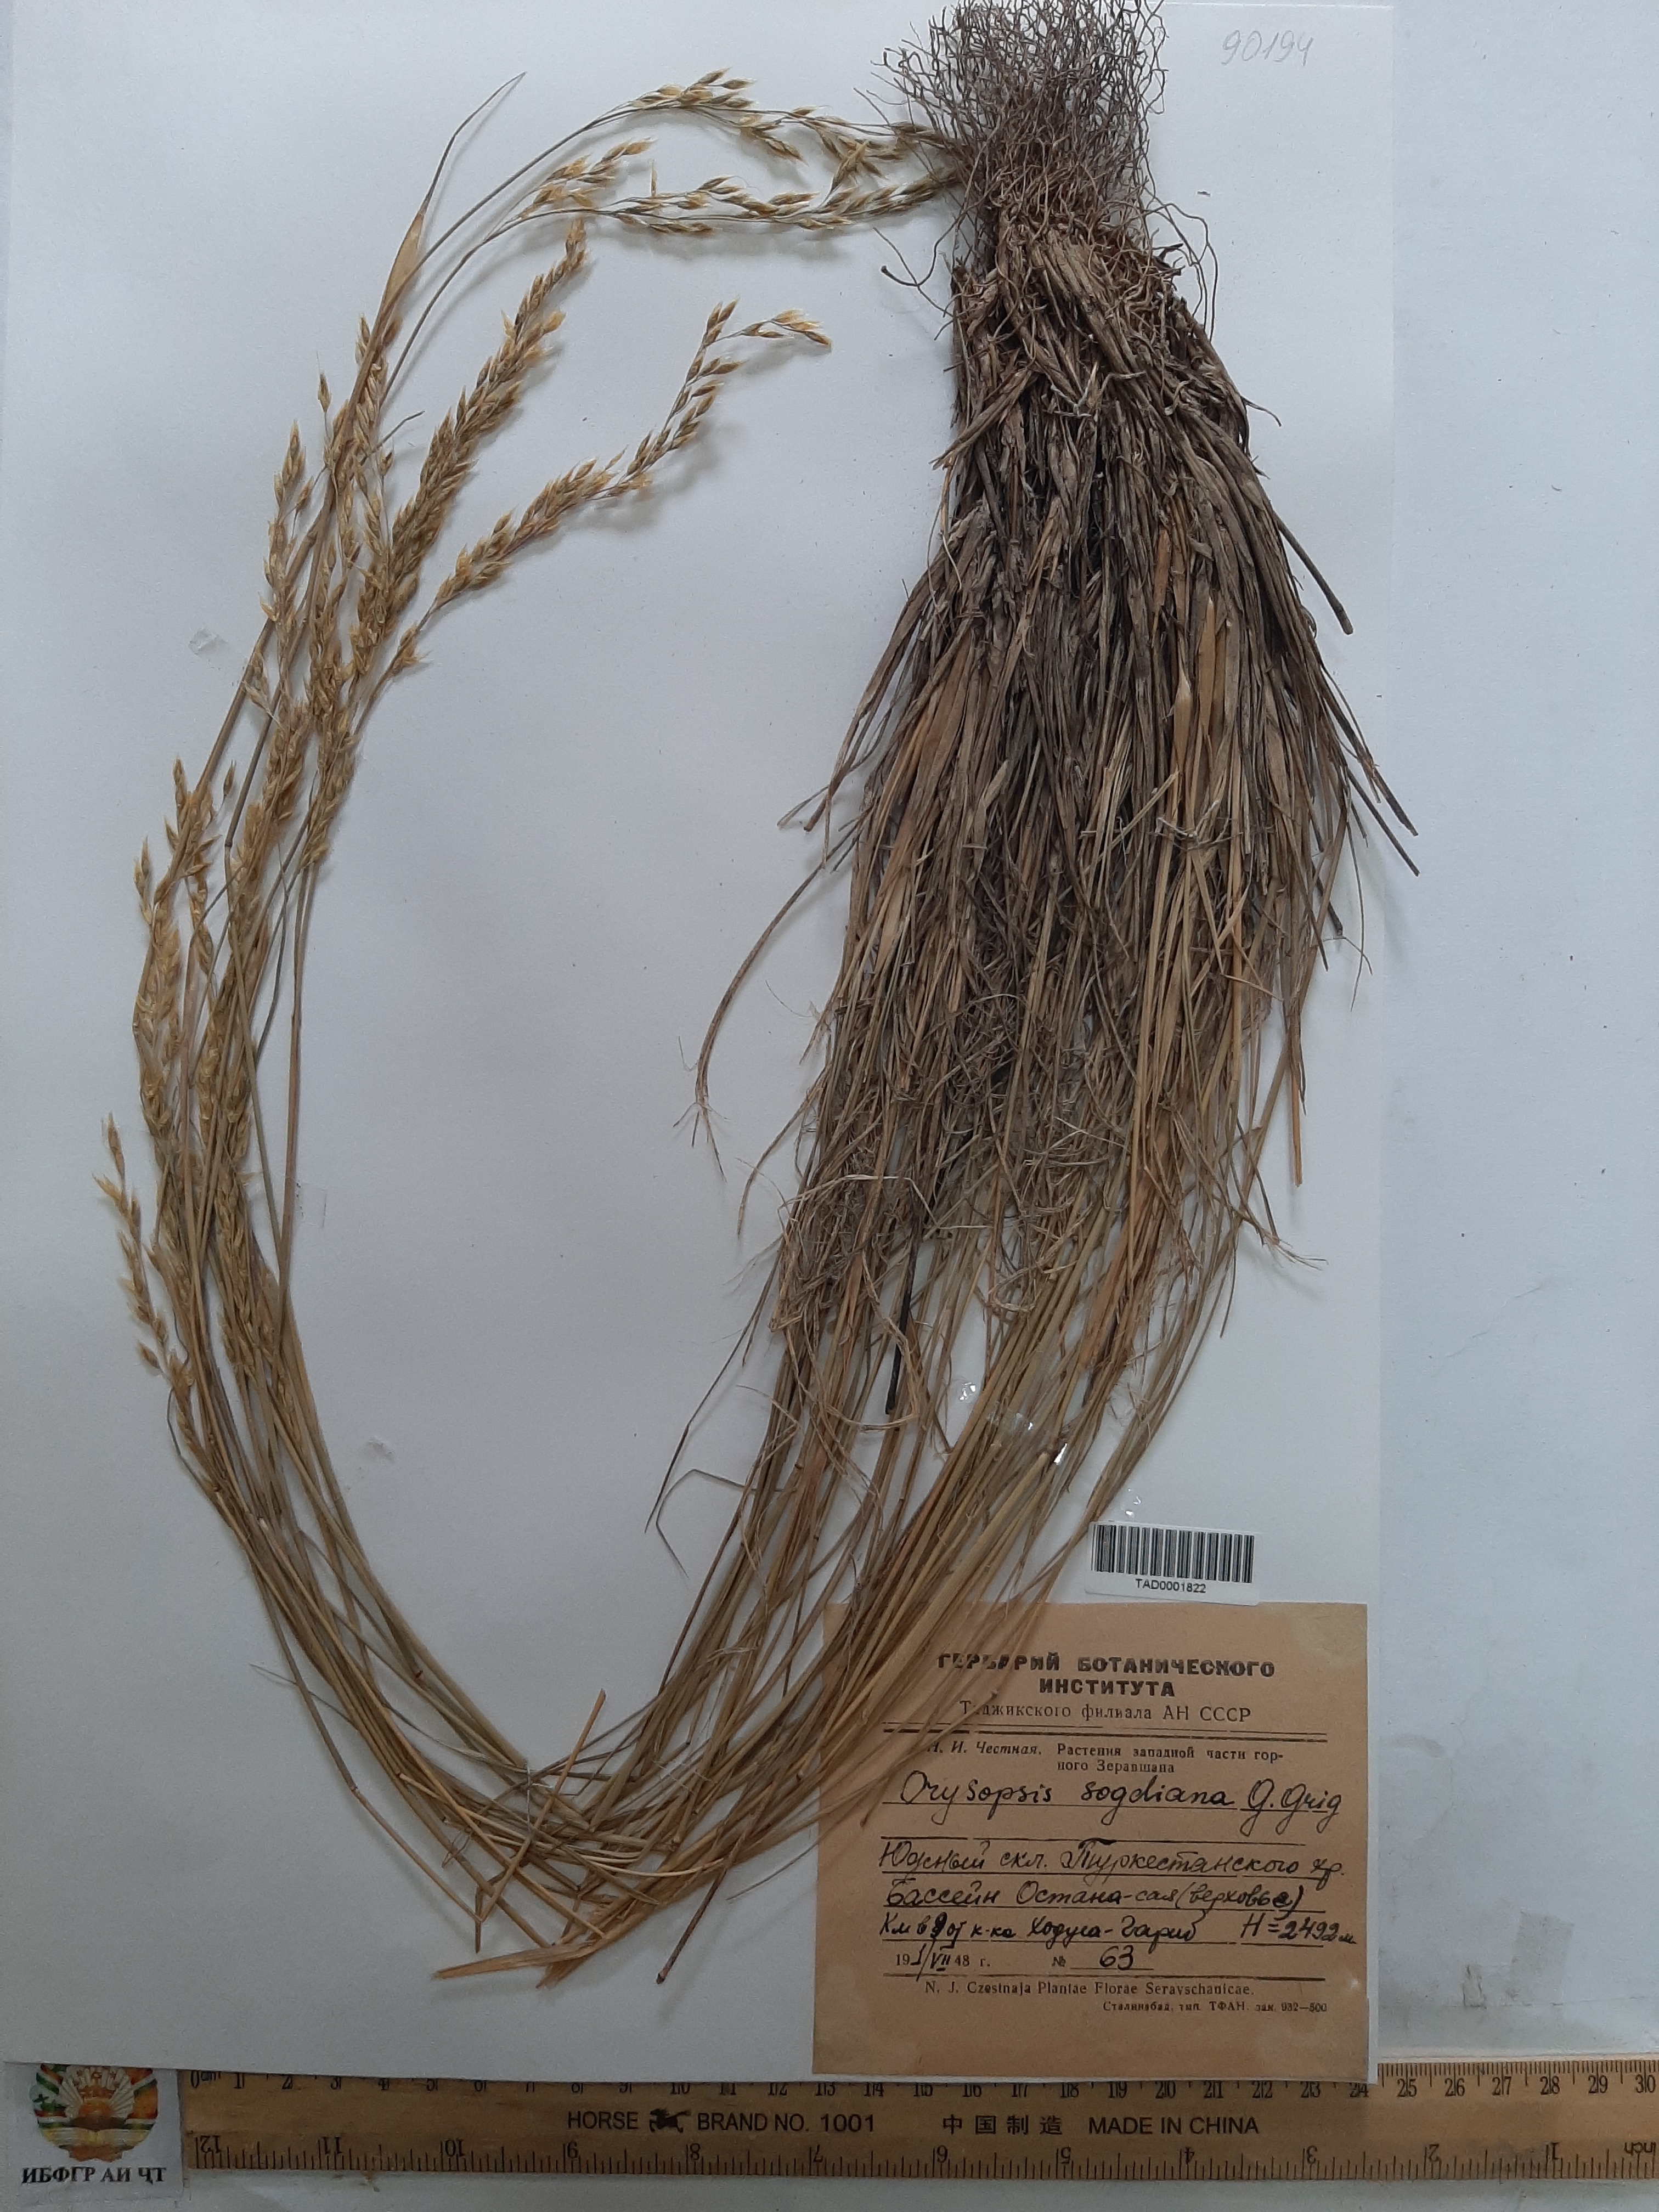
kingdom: Plantae
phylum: Tracheophyta
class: Liliopsida
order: Poales
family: Poaceae
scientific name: Poaceae
